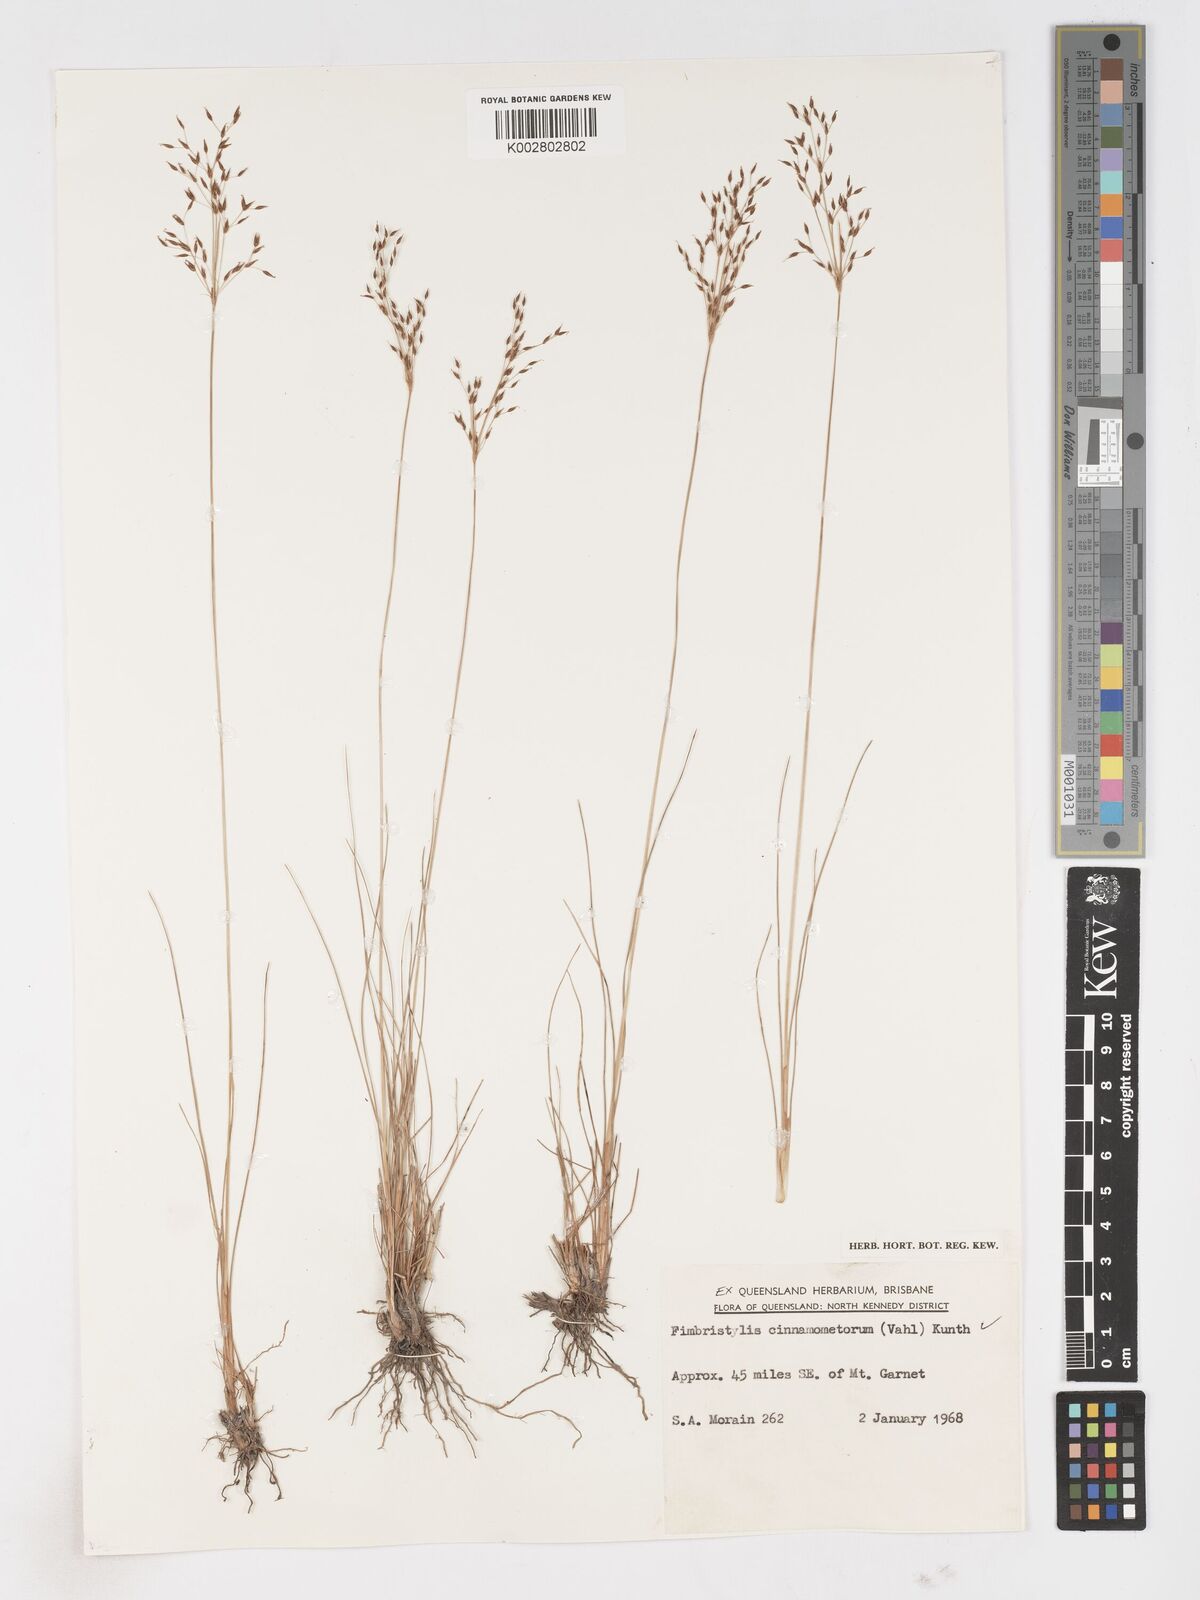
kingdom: Plantae
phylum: Tracheophyta
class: Liliopsida
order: Poales
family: Cyperaceae
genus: Fimbristylis
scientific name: Fimbristylis cinnamometorum
